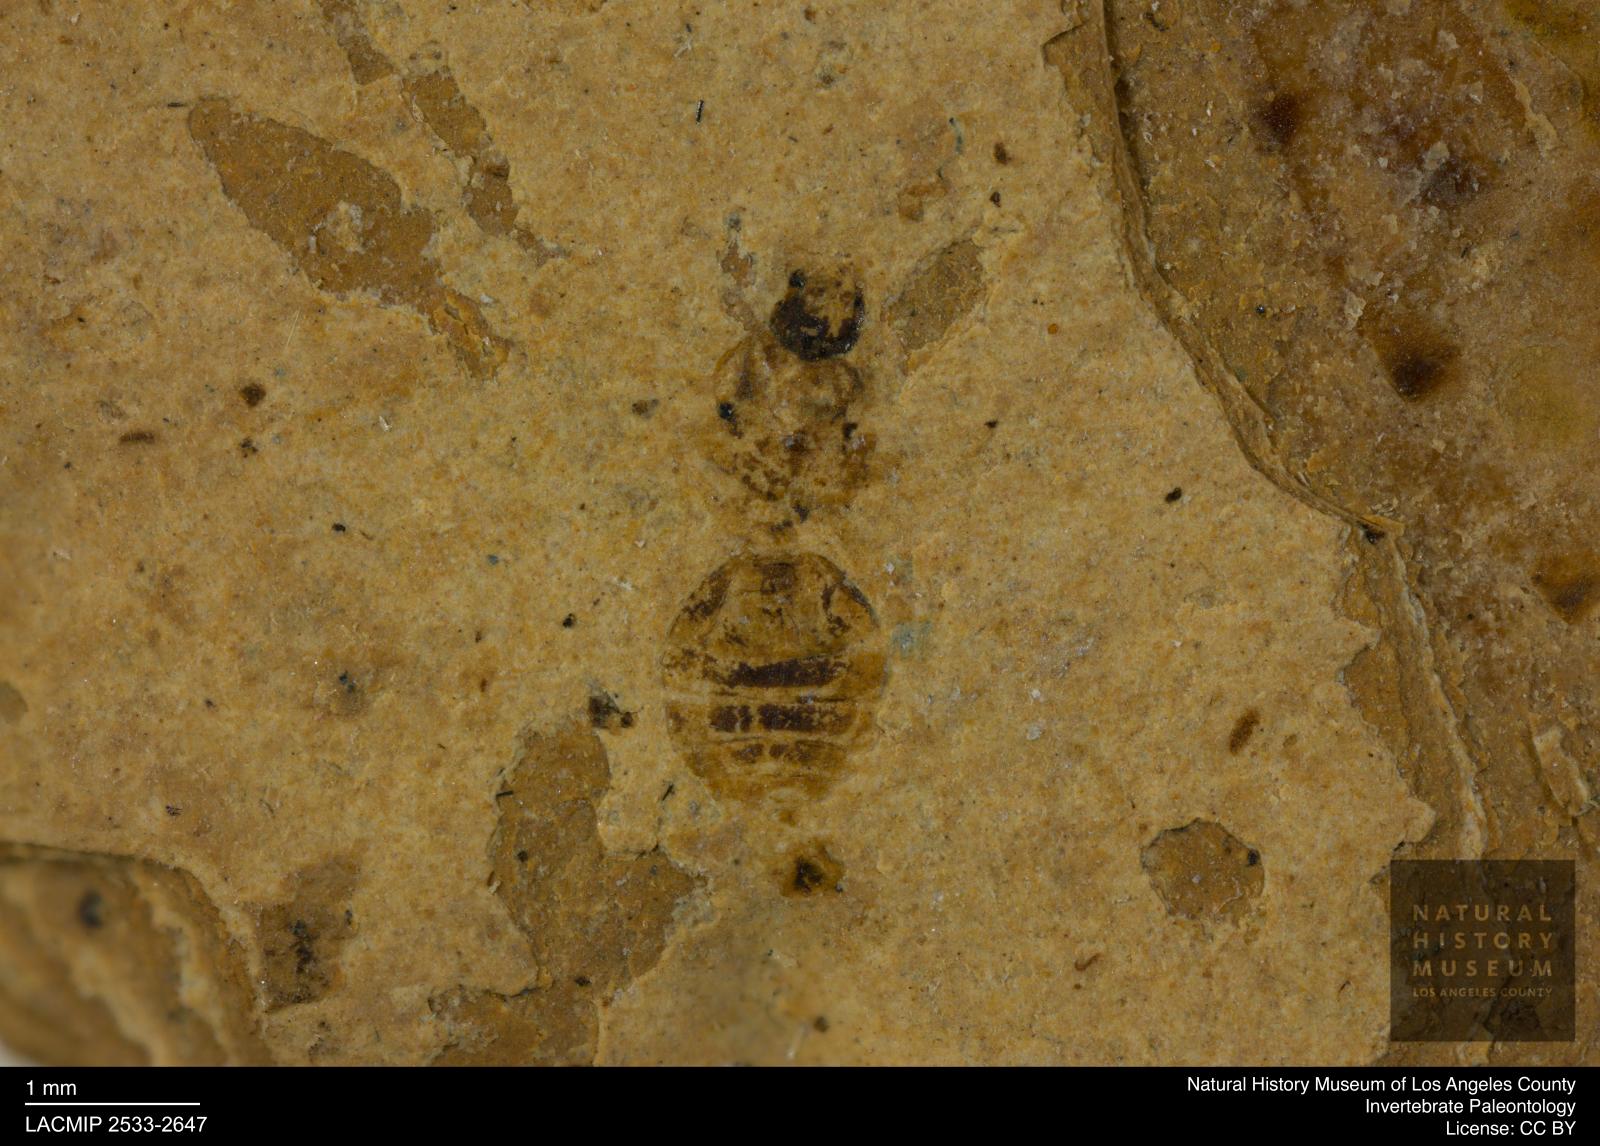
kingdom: Animalia
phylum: Arthropoda
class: Insecta
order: Hymenoptera
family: Formicidae
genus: Myrmica
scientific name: Myrmica
